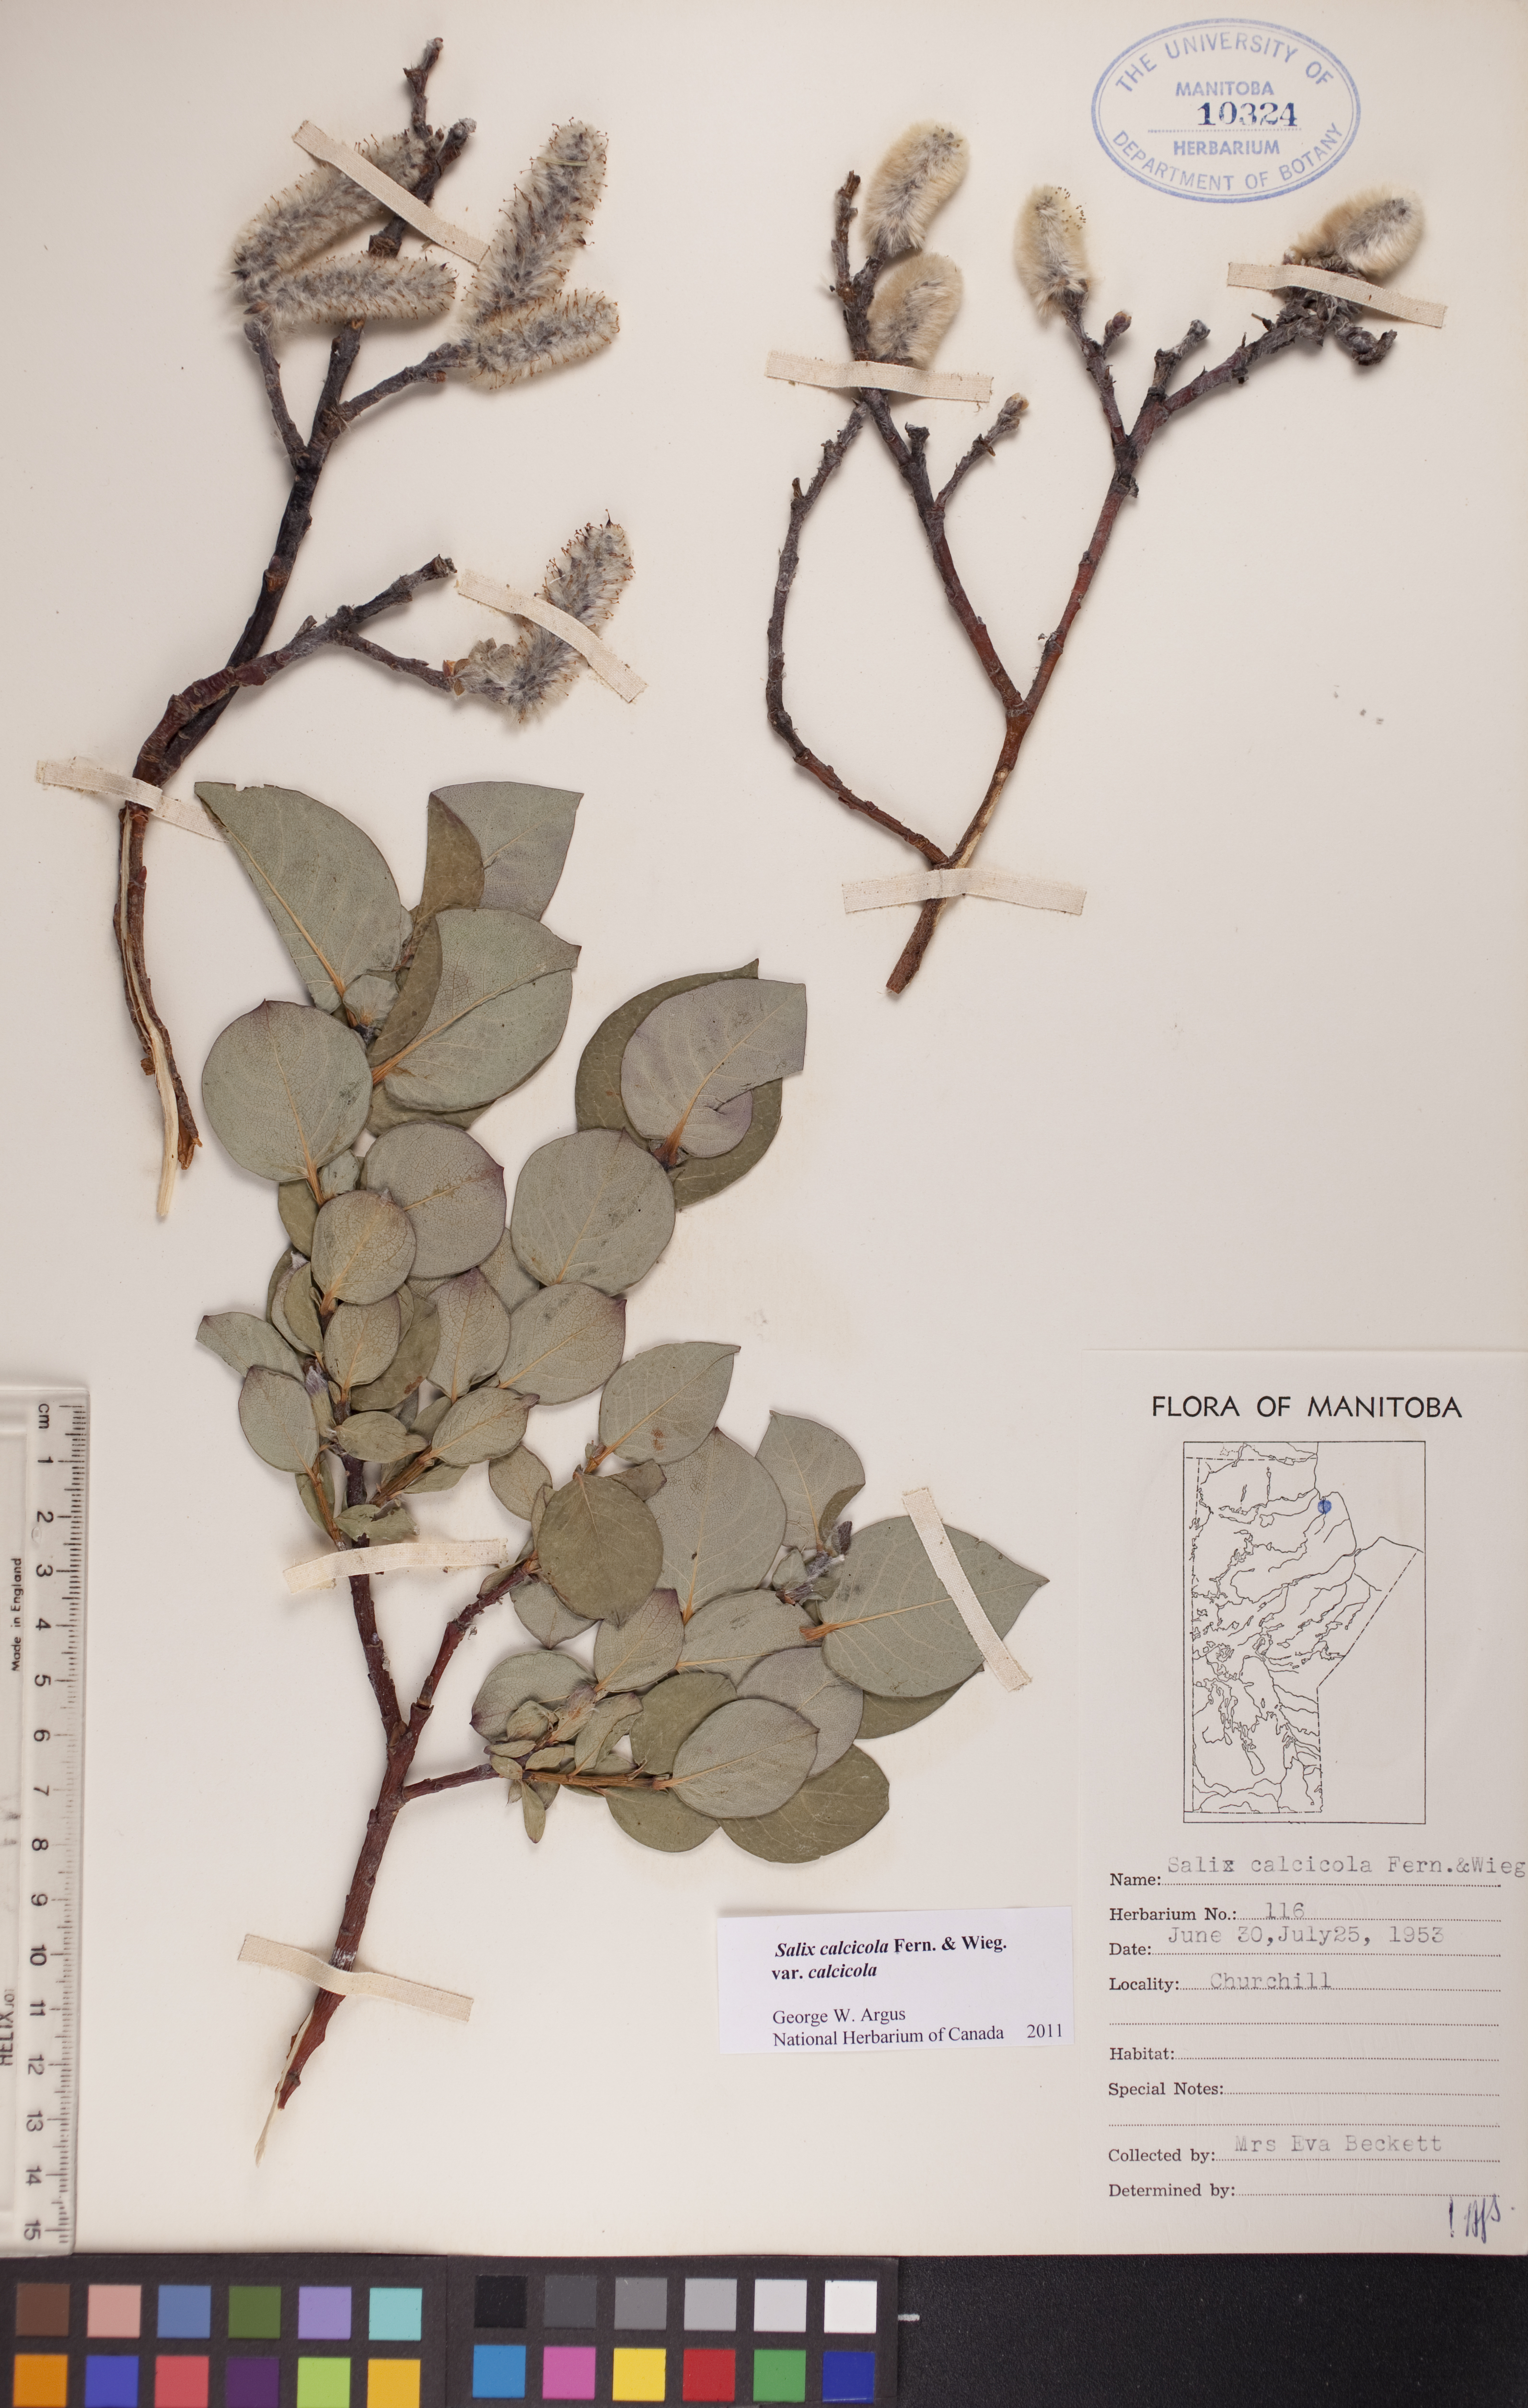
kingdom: Plantae
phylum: Tracheophyta
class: Magnoliopsida
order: Malpighiales
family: Salicaceae
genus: Salix
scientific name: Salix calcicola
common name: Calcareous willow
